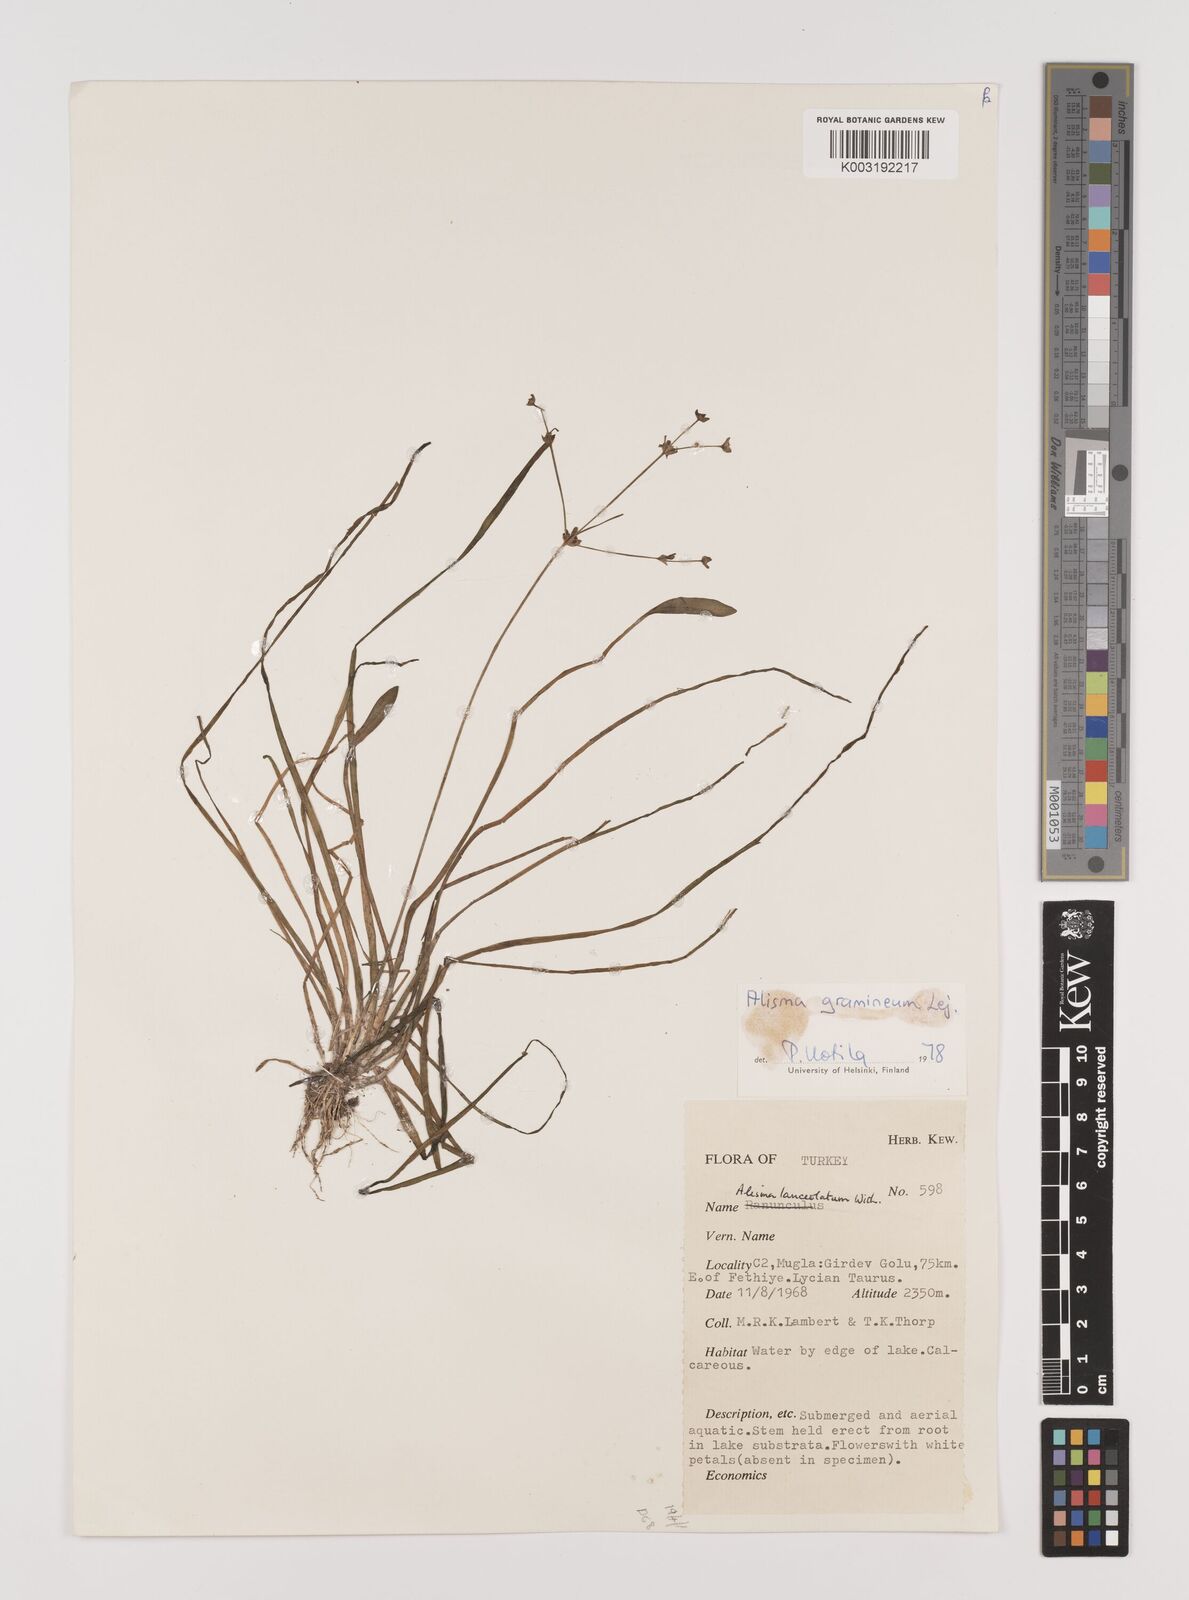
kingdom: Plantae
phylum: Tracheophyta
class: Liliopsida
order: Alismatales
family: Alismataceae
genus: Alisma
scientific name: Alisma gramineum
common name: Ribbon-leaved water-plantain
